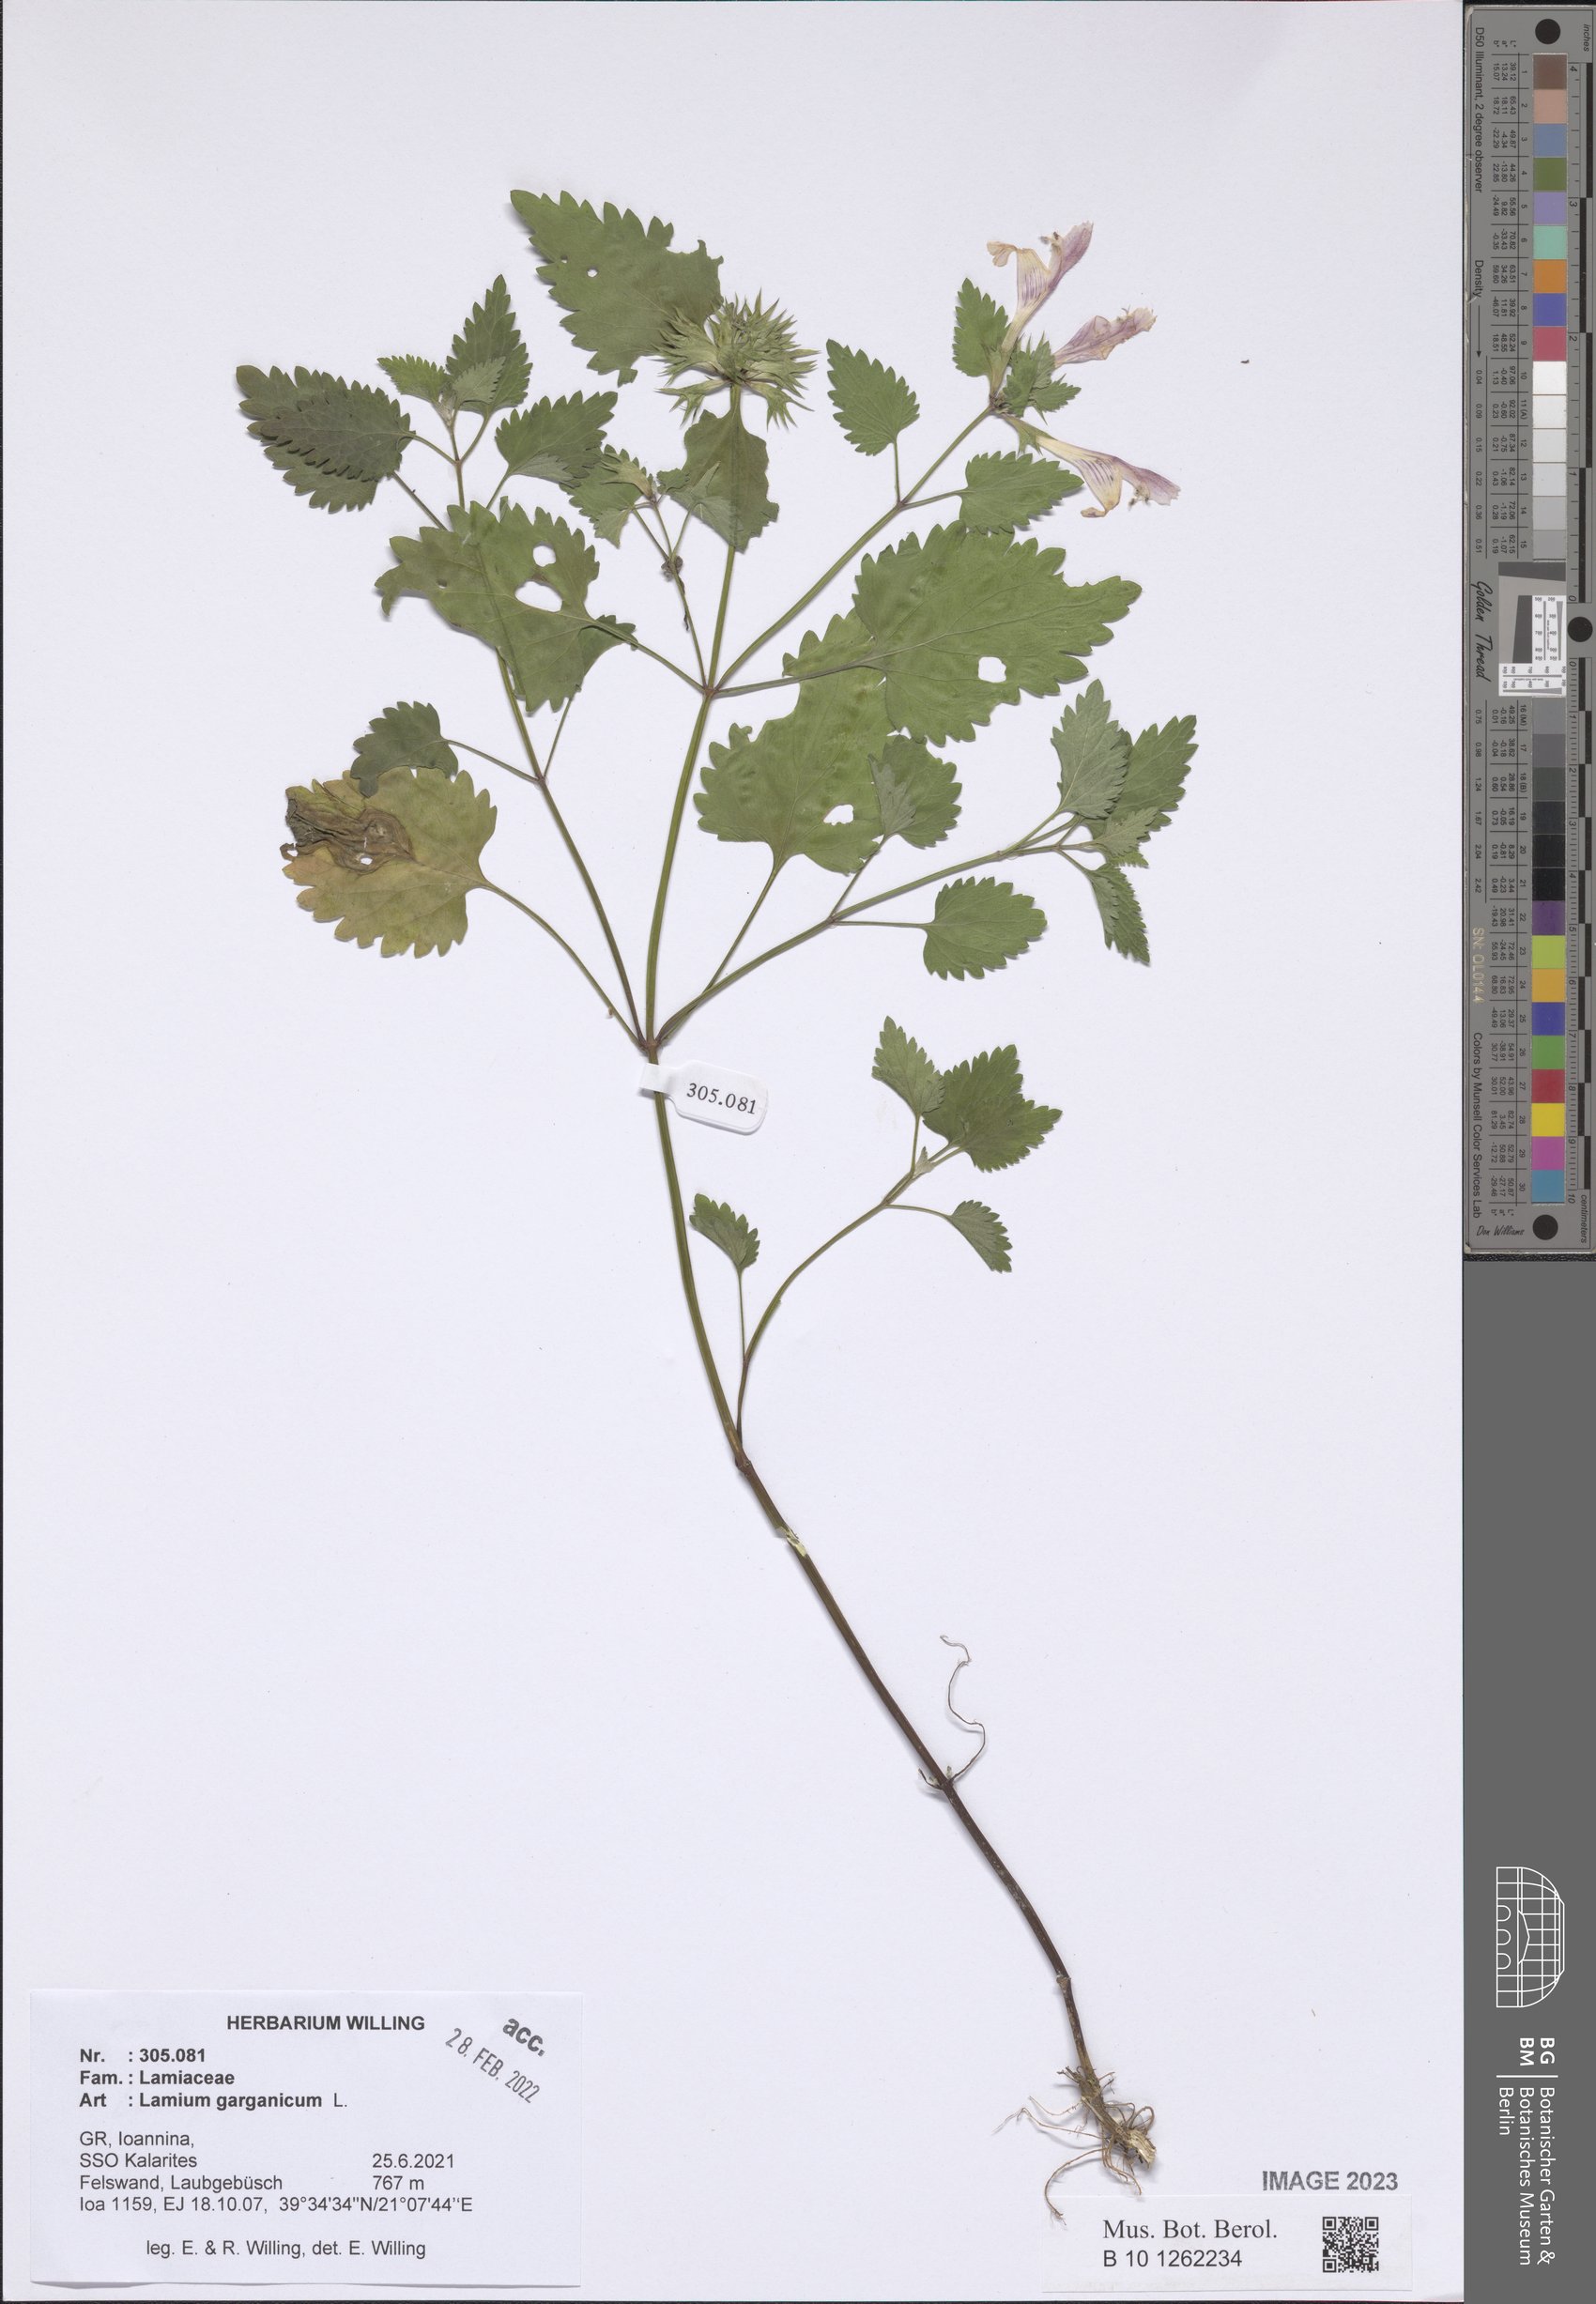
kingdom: Plantae
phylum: Tracheophyta
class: Magnoliopsida
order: Lamiales
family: Lamiaceae
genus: Lamium
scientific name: Lamium garganicum
